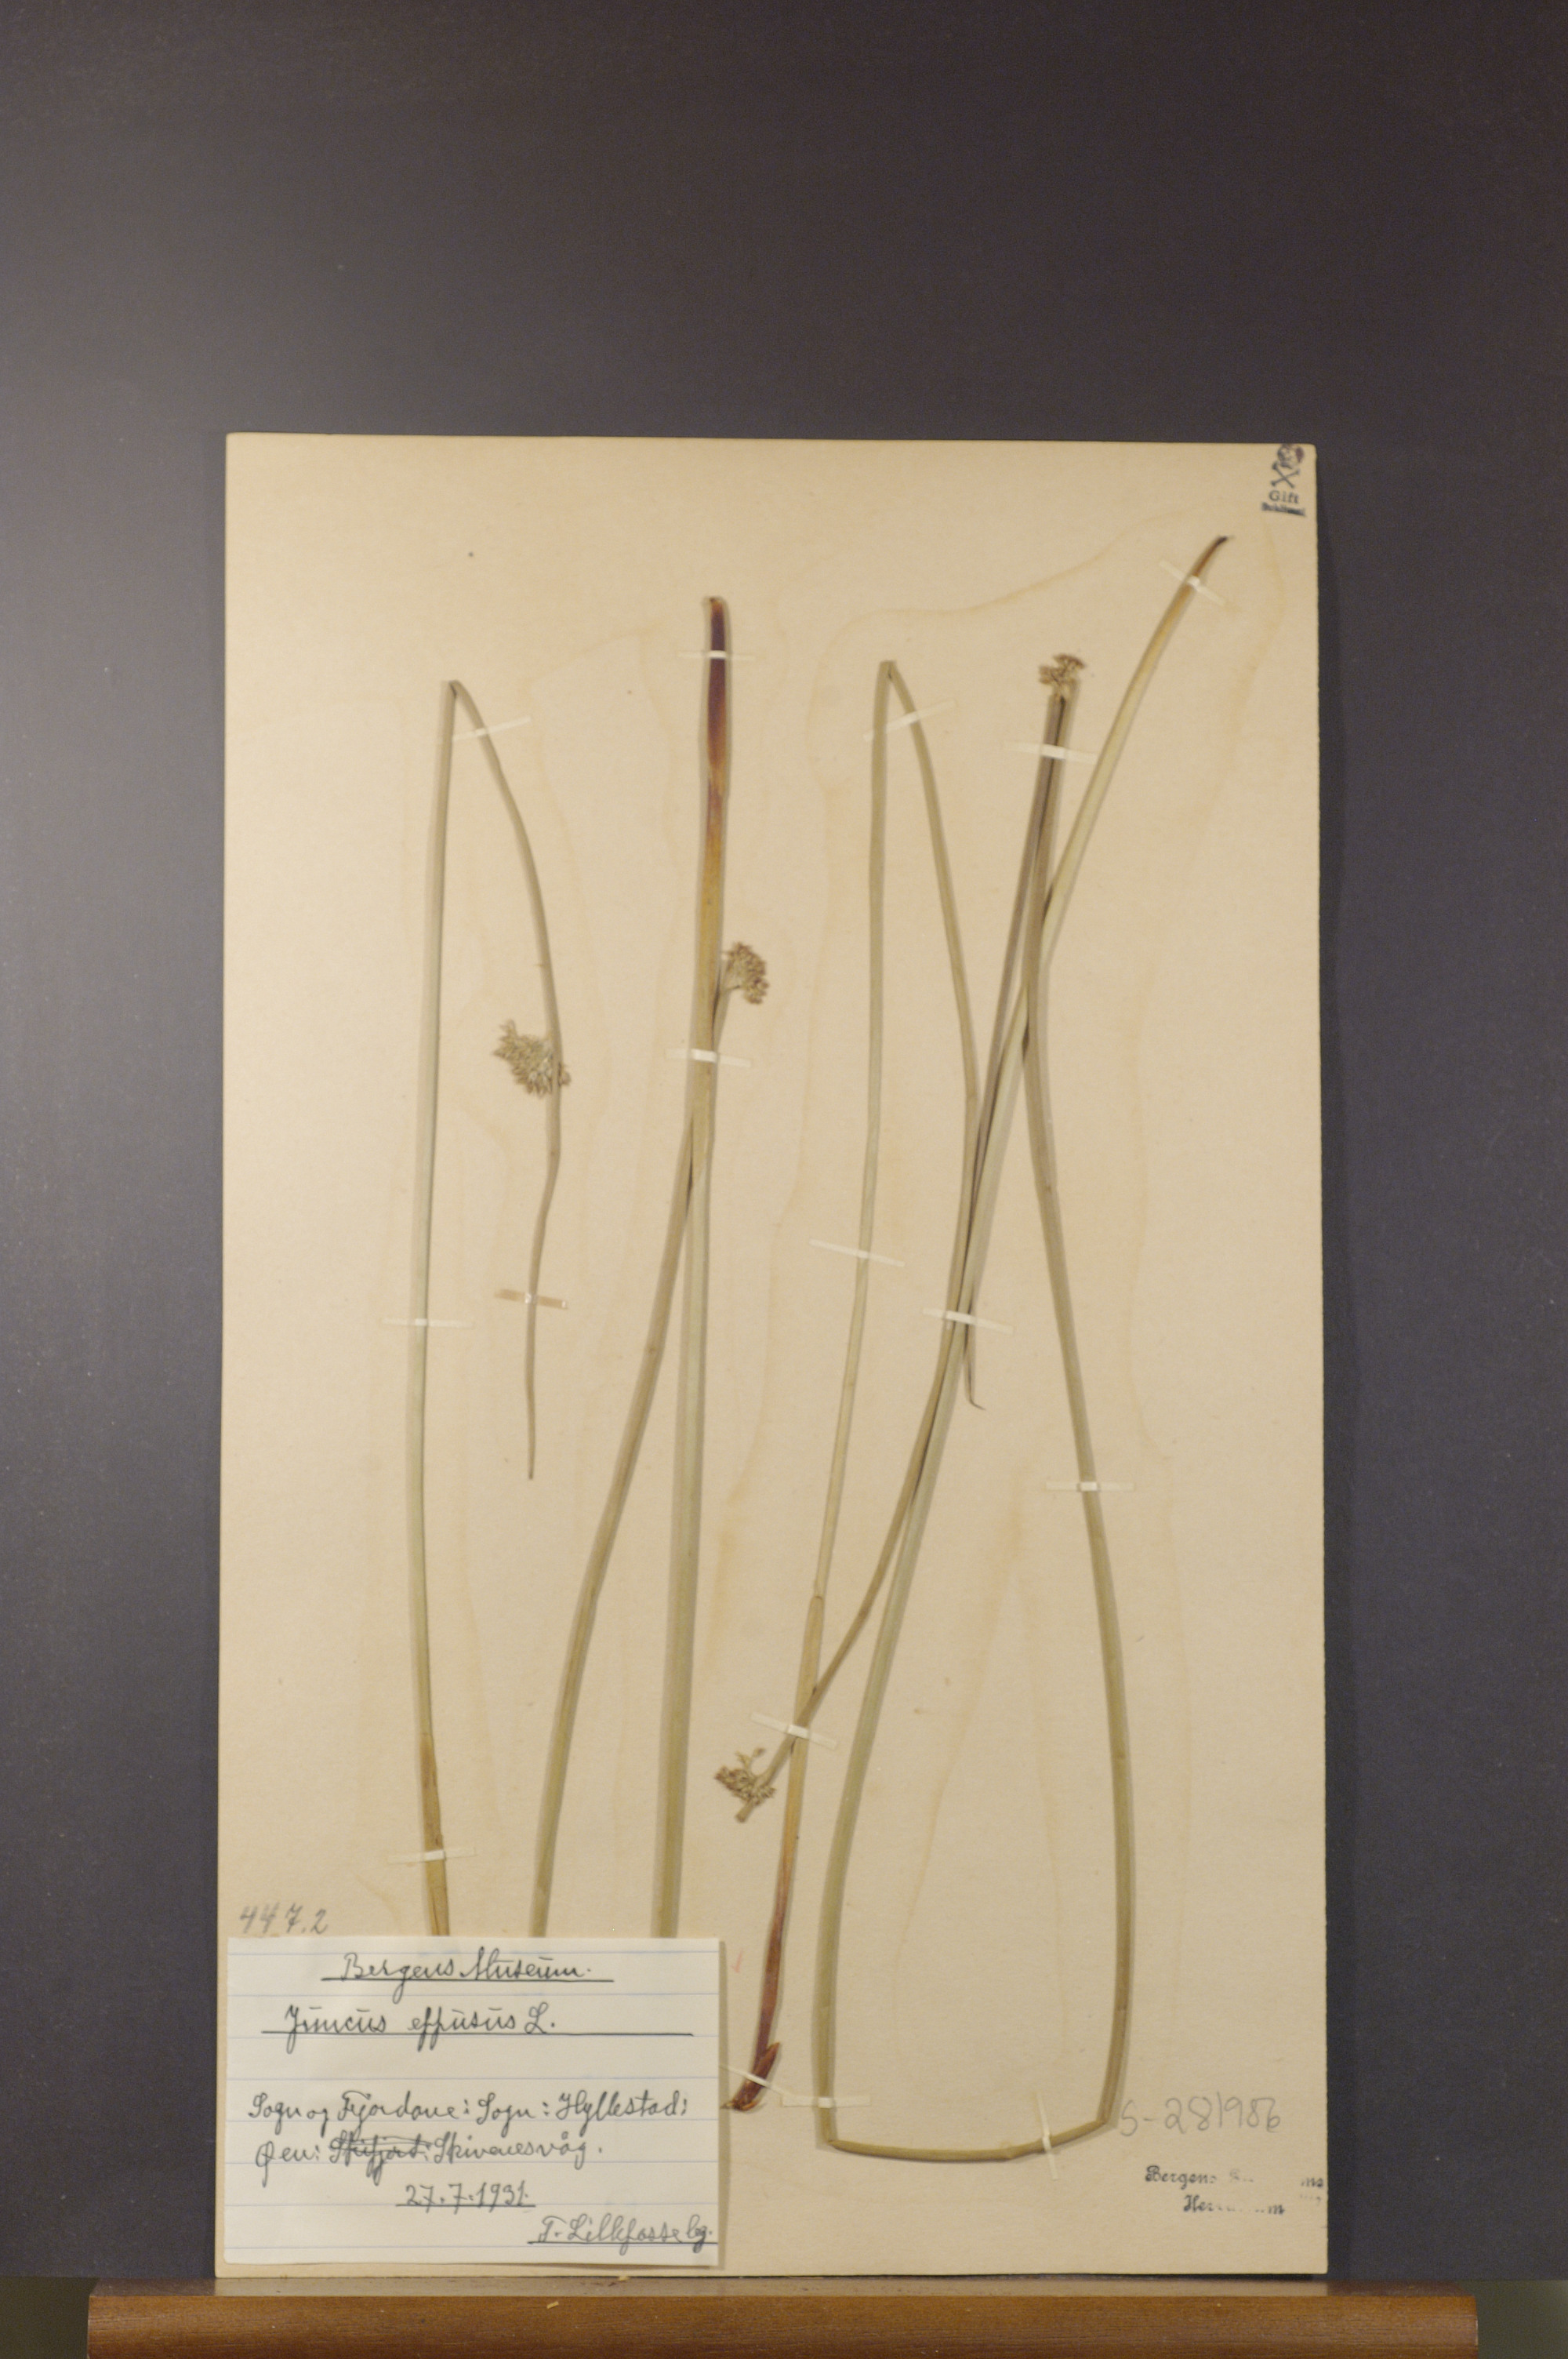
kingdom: Plantae
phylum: Tracheophyta
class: Liliopsida
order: Poales
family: Juncaceae
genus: Juncus
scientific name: Juncus effusus
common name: Soft rush
